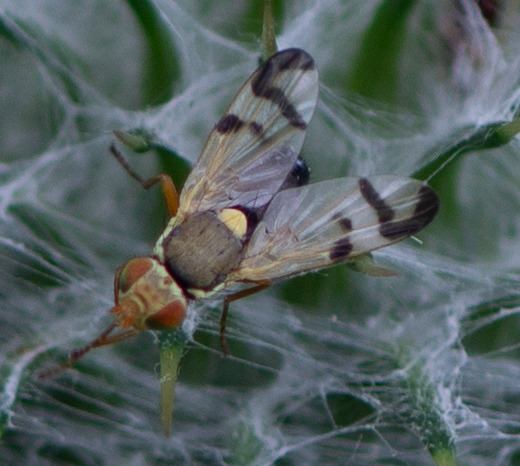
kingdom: Animalia
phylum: Arthropoda
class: Insecta
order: Diptera
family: Tephritidae
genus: Urophora
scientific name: Urophora stylata
